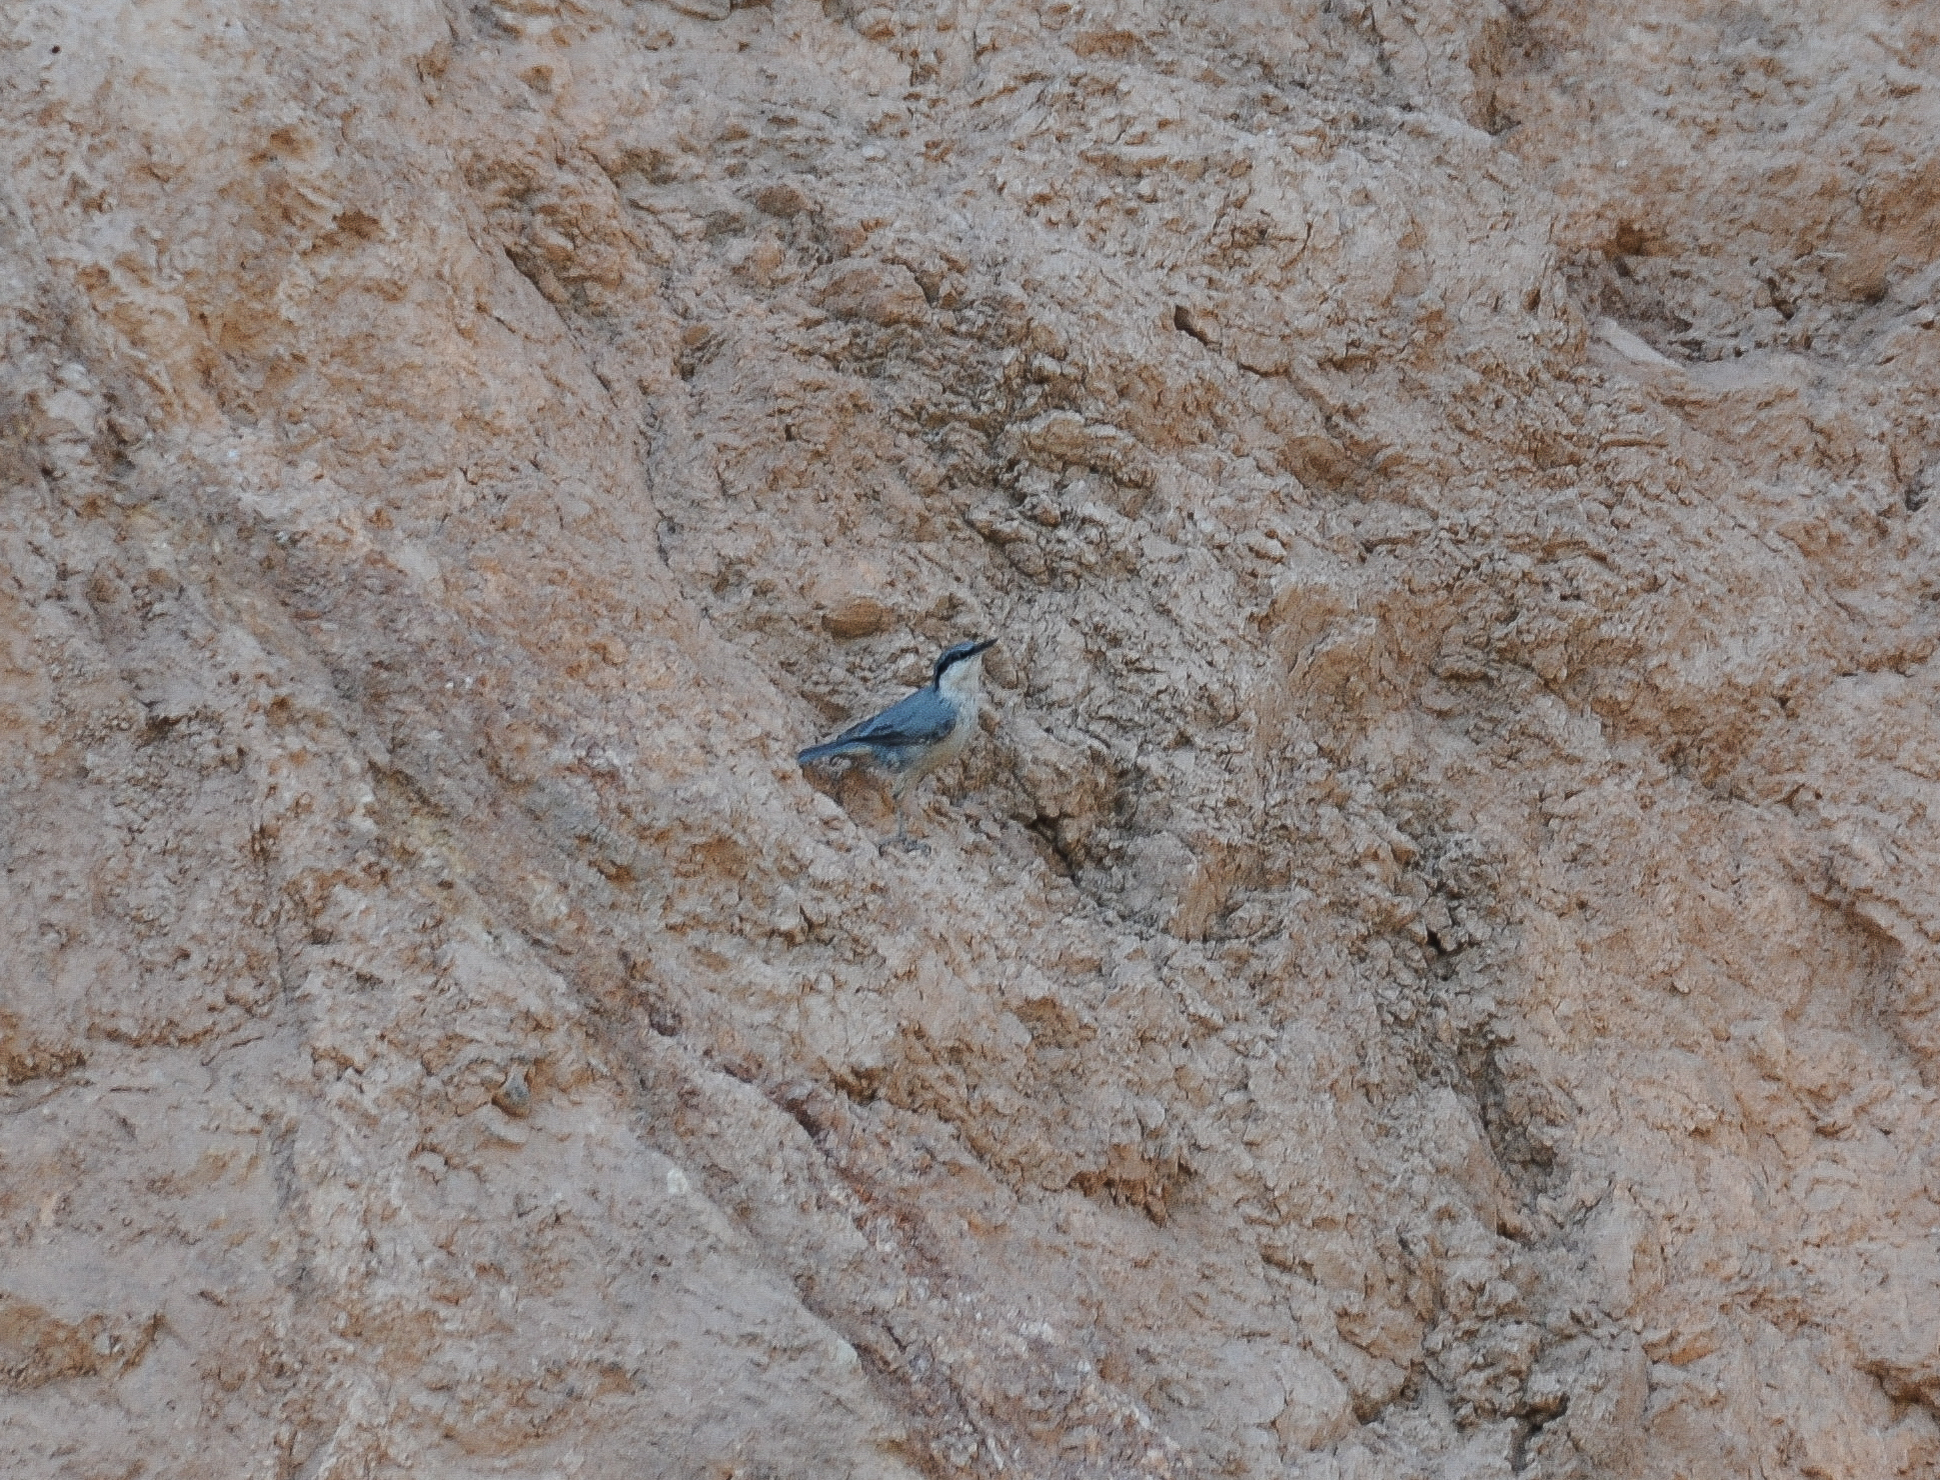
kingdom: Animalia
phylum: Chordata
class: Aves
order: Passeriformes
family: Sittidae
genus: Sitta
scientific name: Sitta neumayer
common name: Western rock nuthatch
